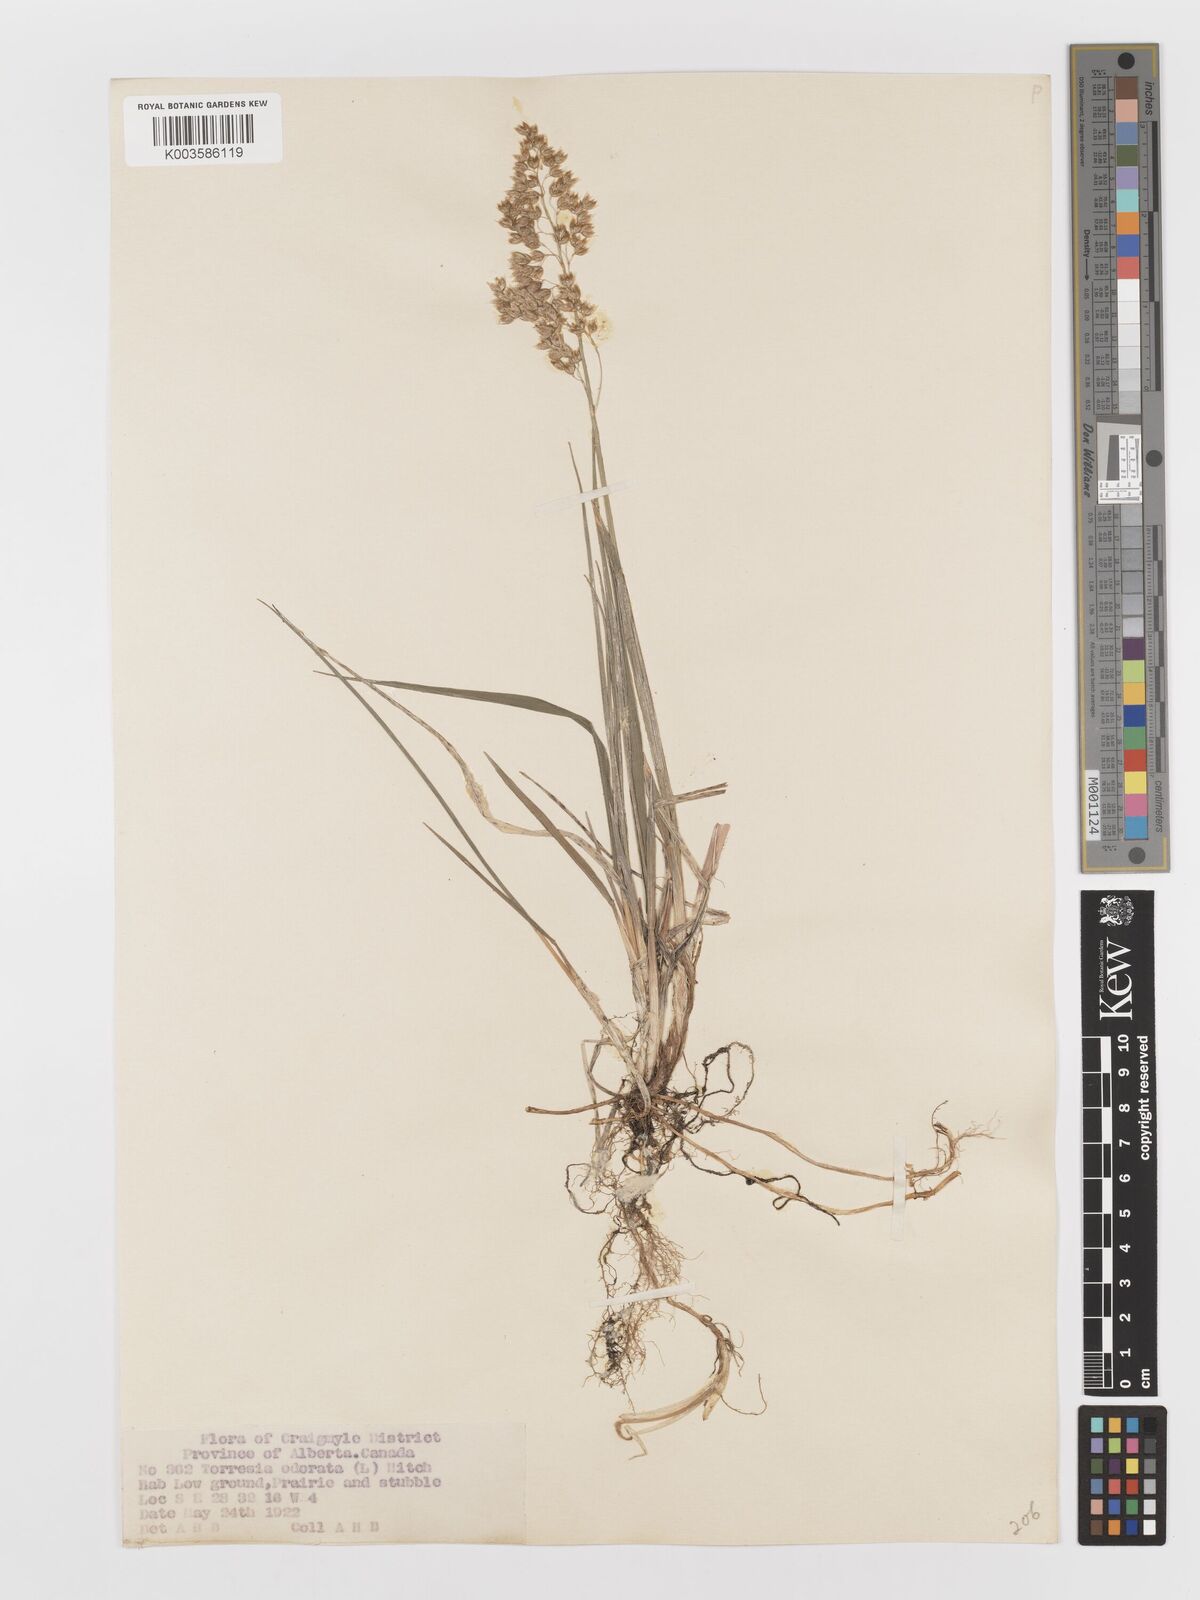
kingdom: Plantae
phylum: Tracheophyta
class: Liliopsida
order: Poales
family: Poaceae
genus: Anthoxanthum
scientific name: Anthoxanthum nitens
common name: Holy grass
